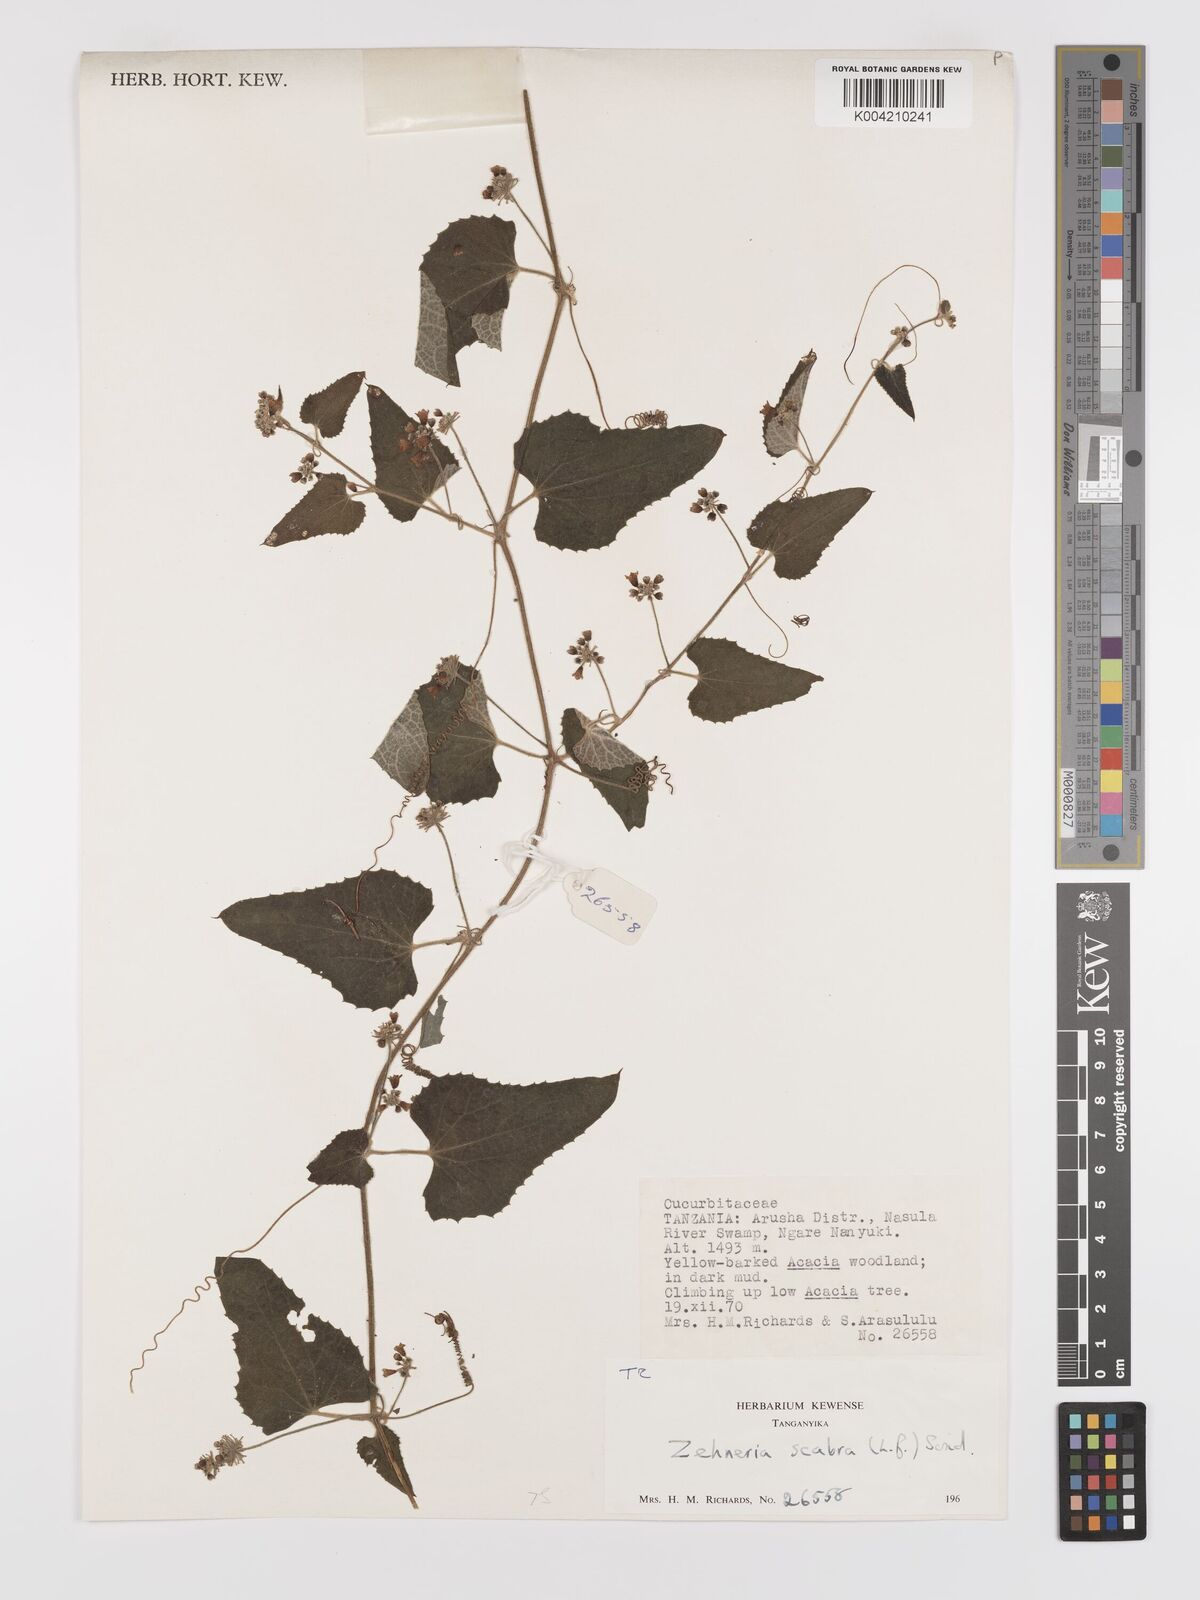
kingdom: Plantae
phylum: Tracheophyta
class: Magnoliopsida
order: Cucurbitales
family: Cucurbitaceae
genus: Zehneria
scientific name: Zehneria scabra
